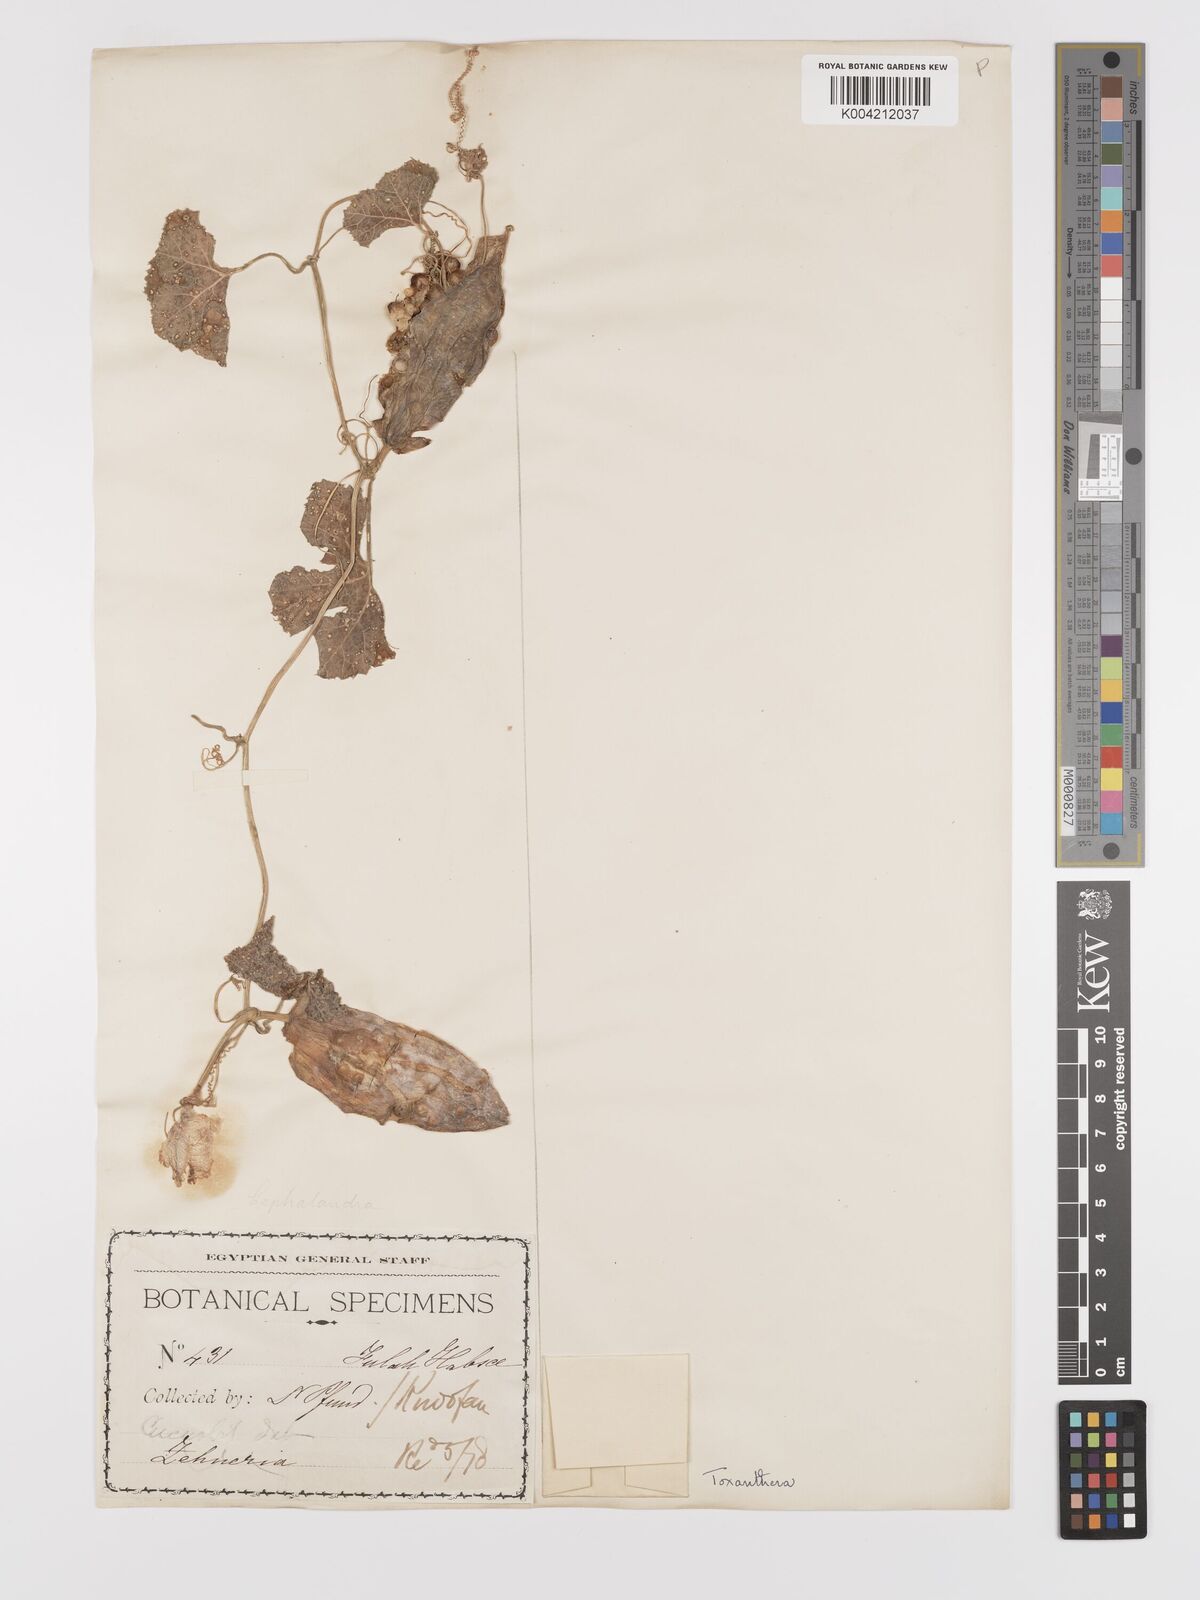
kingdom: Plantae
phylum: Tracheophyta
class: Magnoliopsida
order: Cucurbitales
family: Cucurbitaceae
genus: Kedrostis
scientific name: Kedrostis leloja
